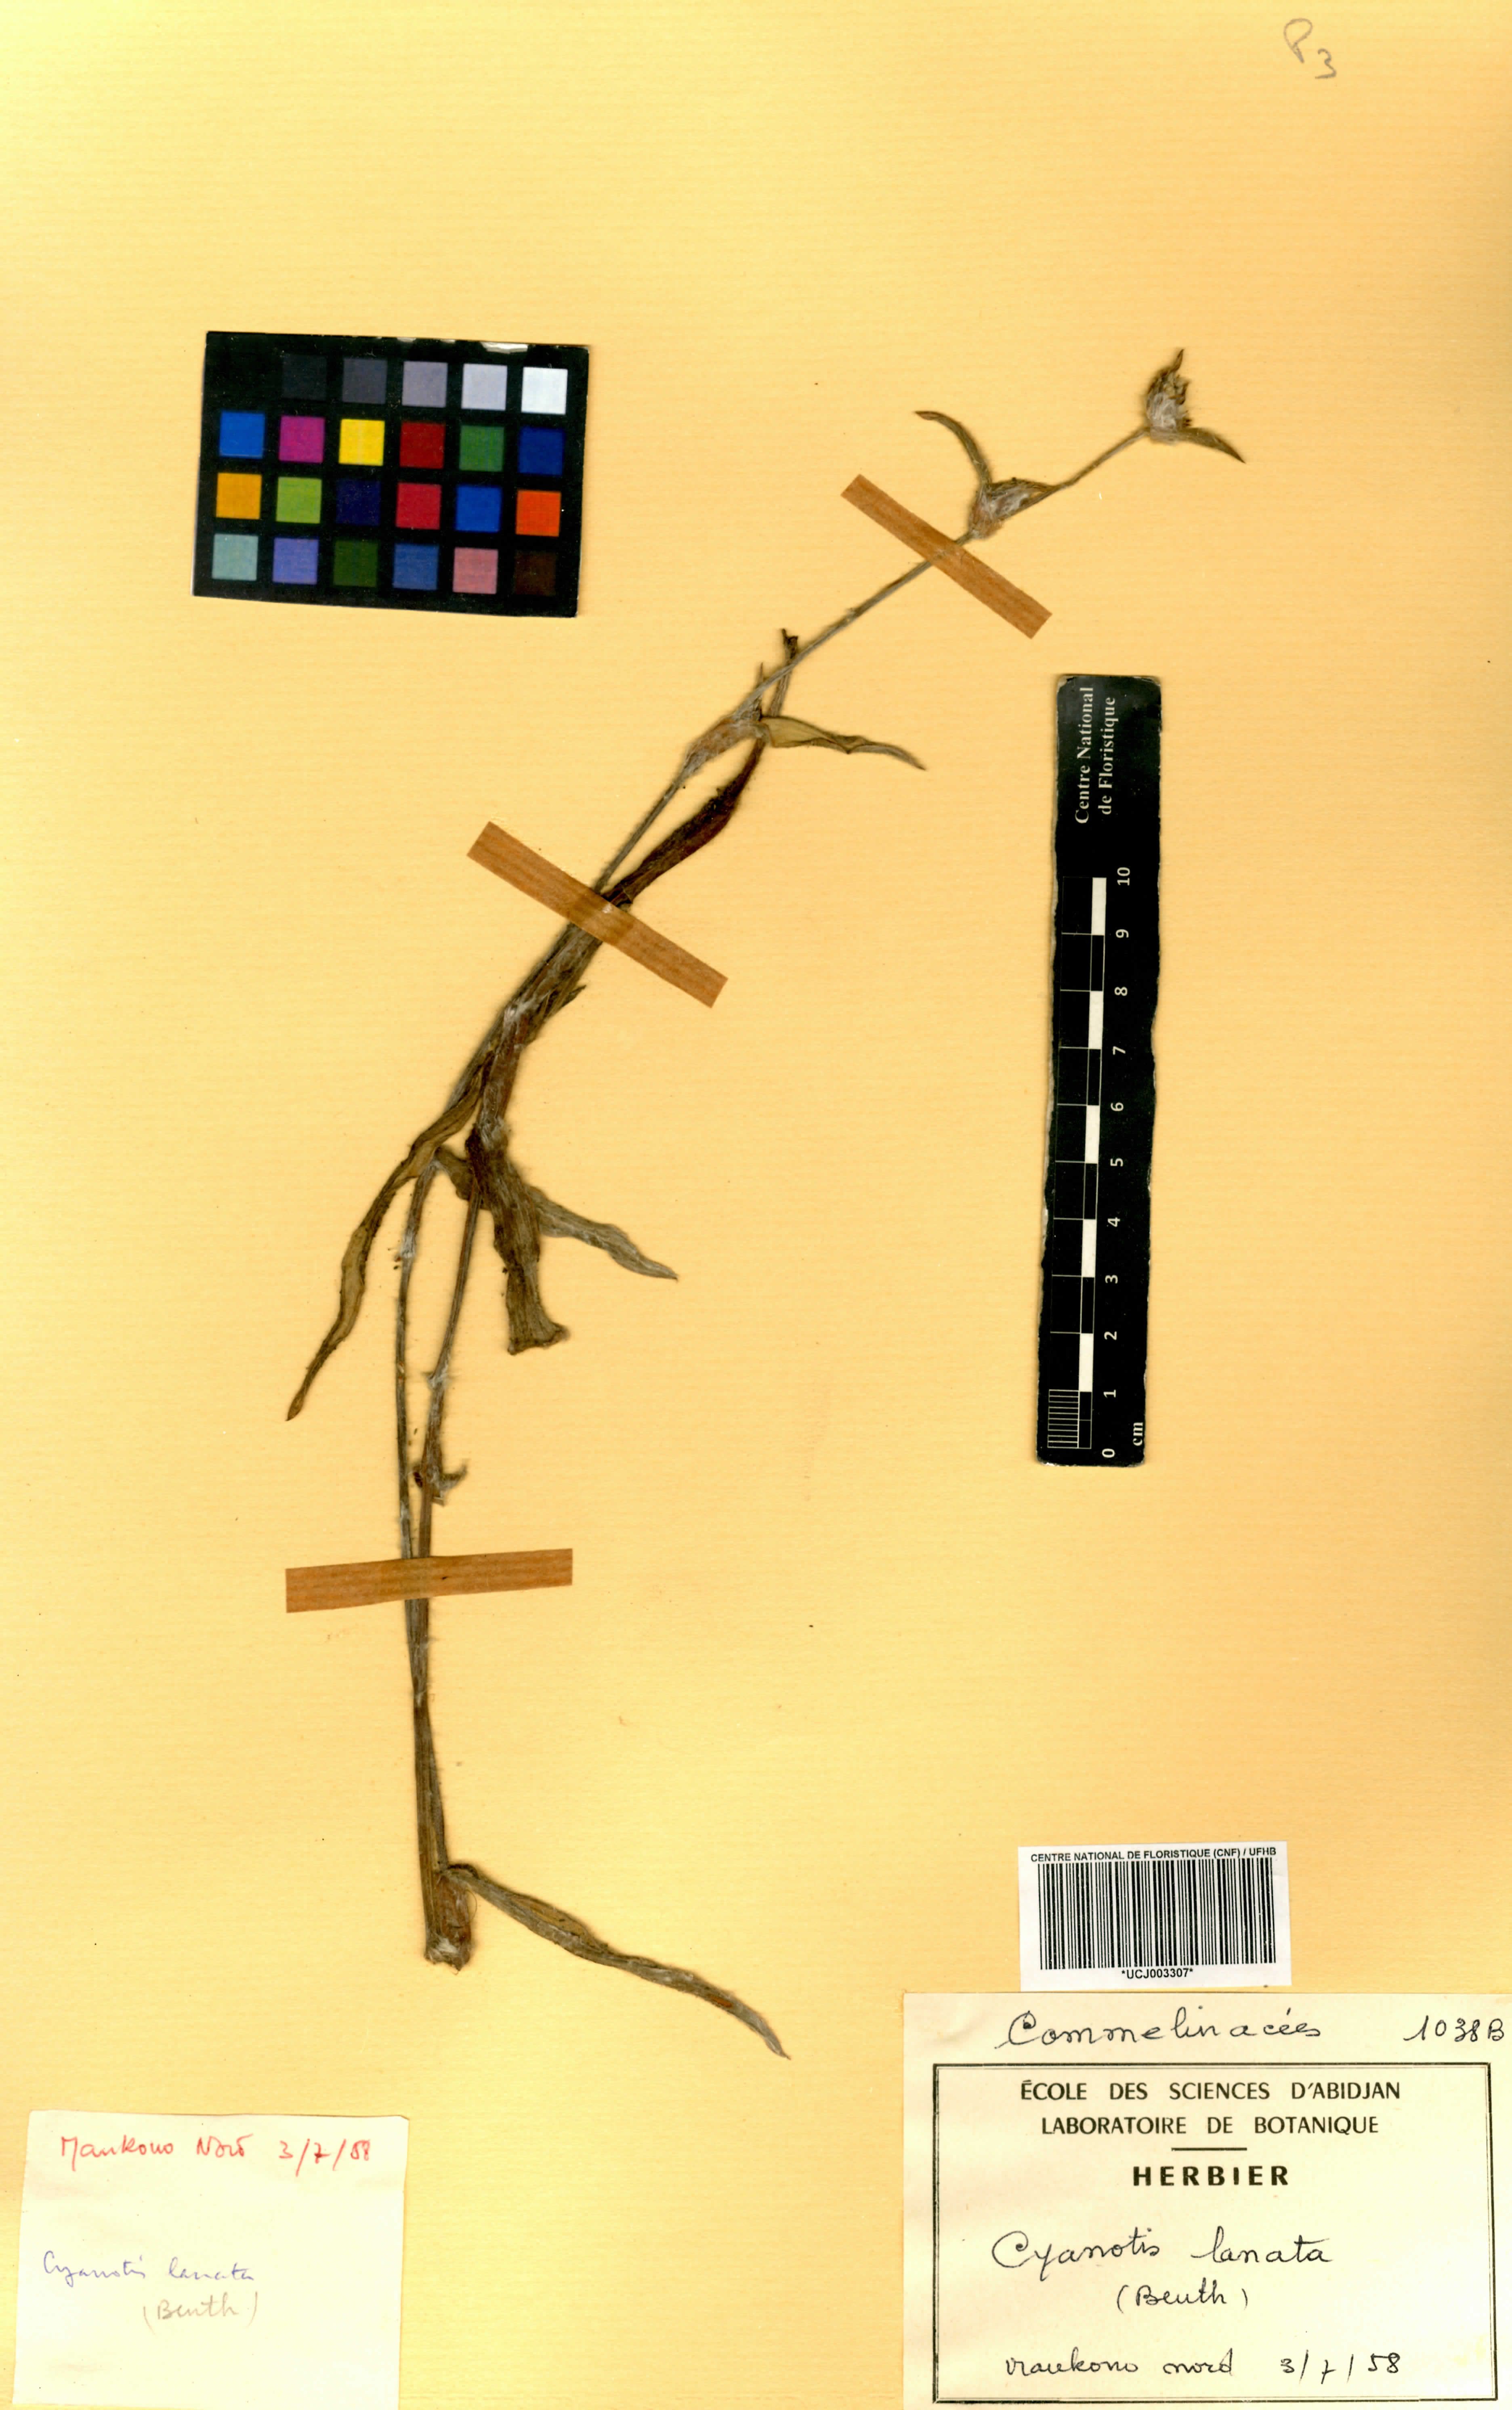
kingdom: Plantae
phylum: Tracheophyta
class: Liliopsida
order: Commelinales
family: Commelinaceae
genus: Cyanotis
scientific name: Cyanotis lanata
